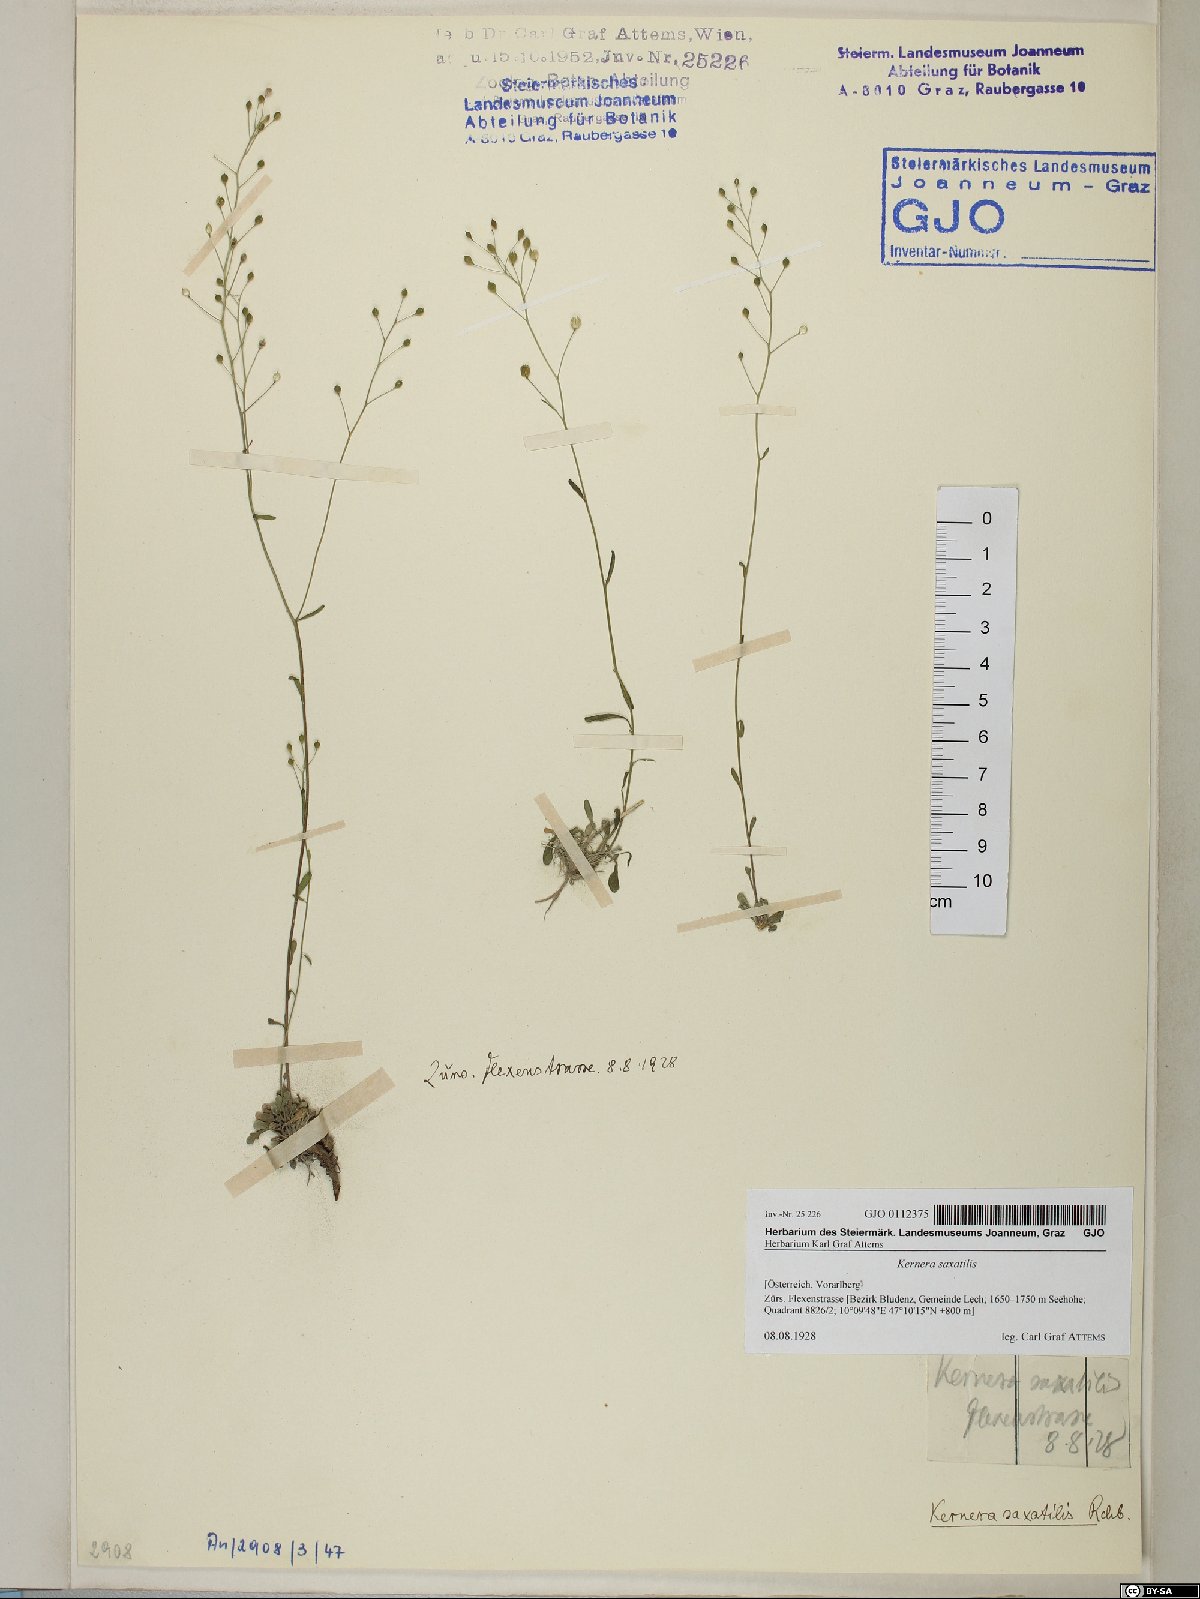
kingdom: Plantae
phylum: Tracheophyta
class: Magnoliopsida
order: Brassicales
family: Brassicaceae
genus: Kernera
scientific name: Kernera saxatilis
